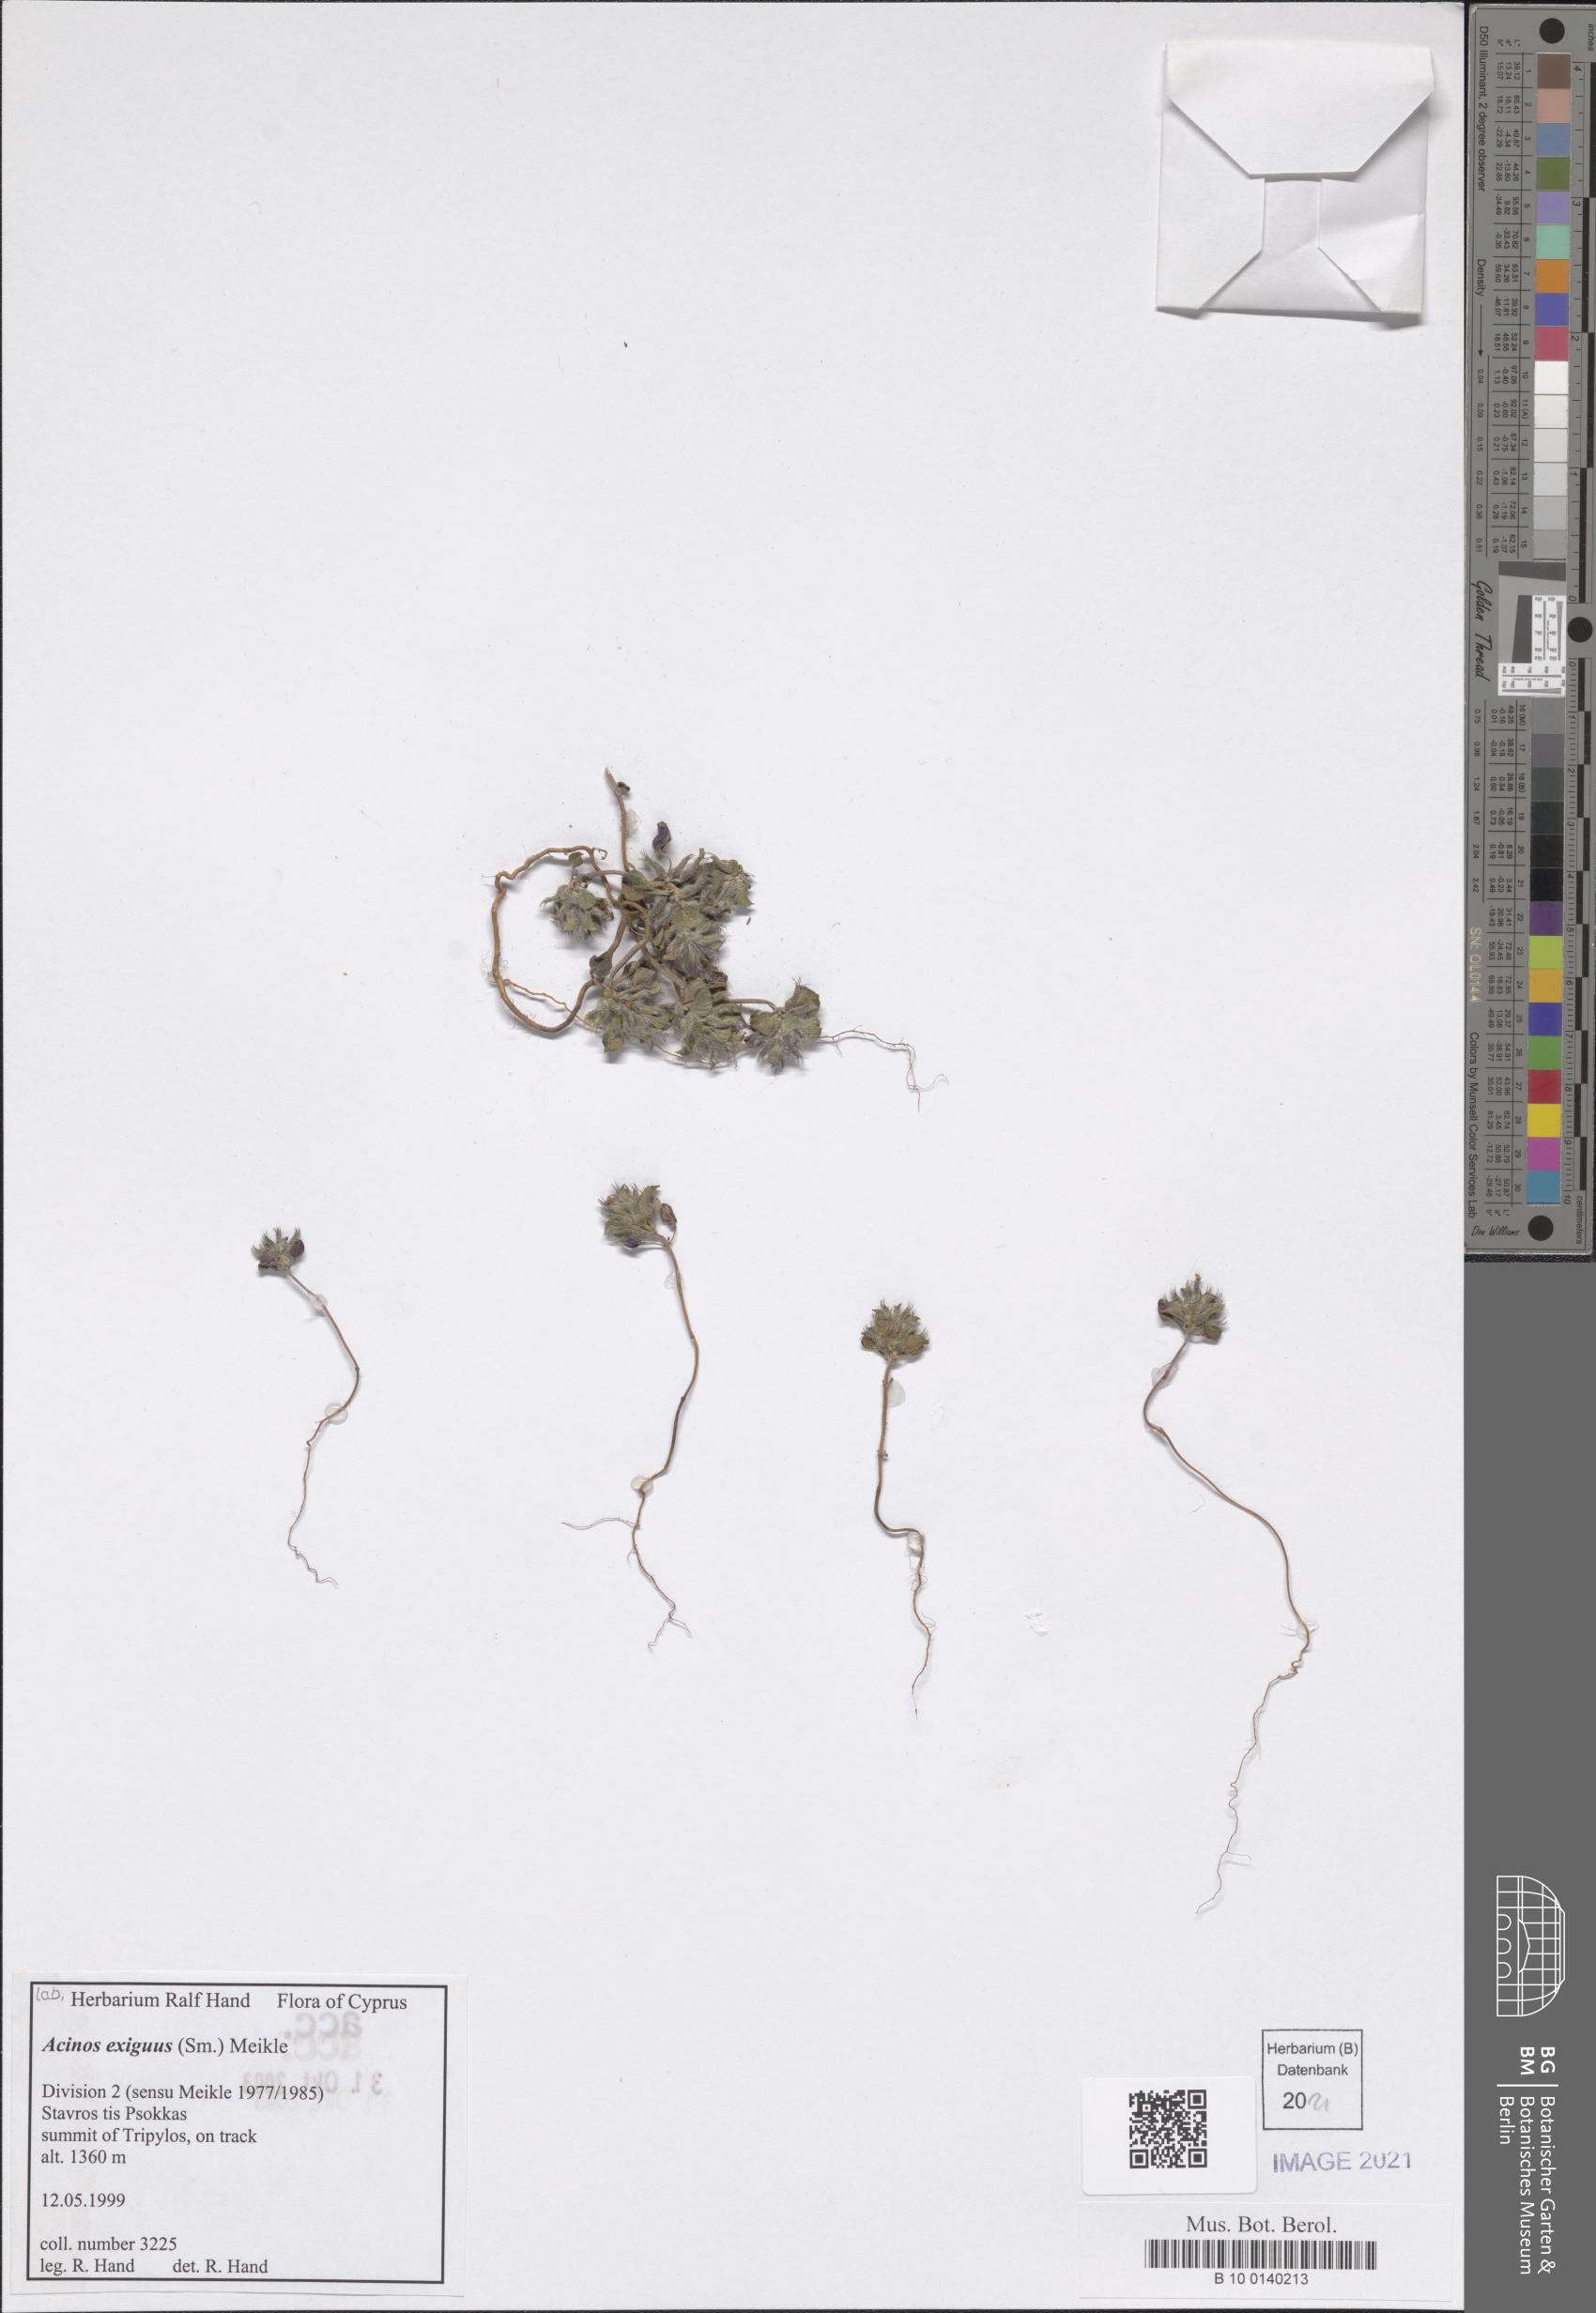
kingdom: Plantae
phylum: Tracheophyta
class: Magnoliopsida
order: Lamiales
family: Lamiaceae
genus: Clinopodium
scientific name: Clinopodium graveolens
